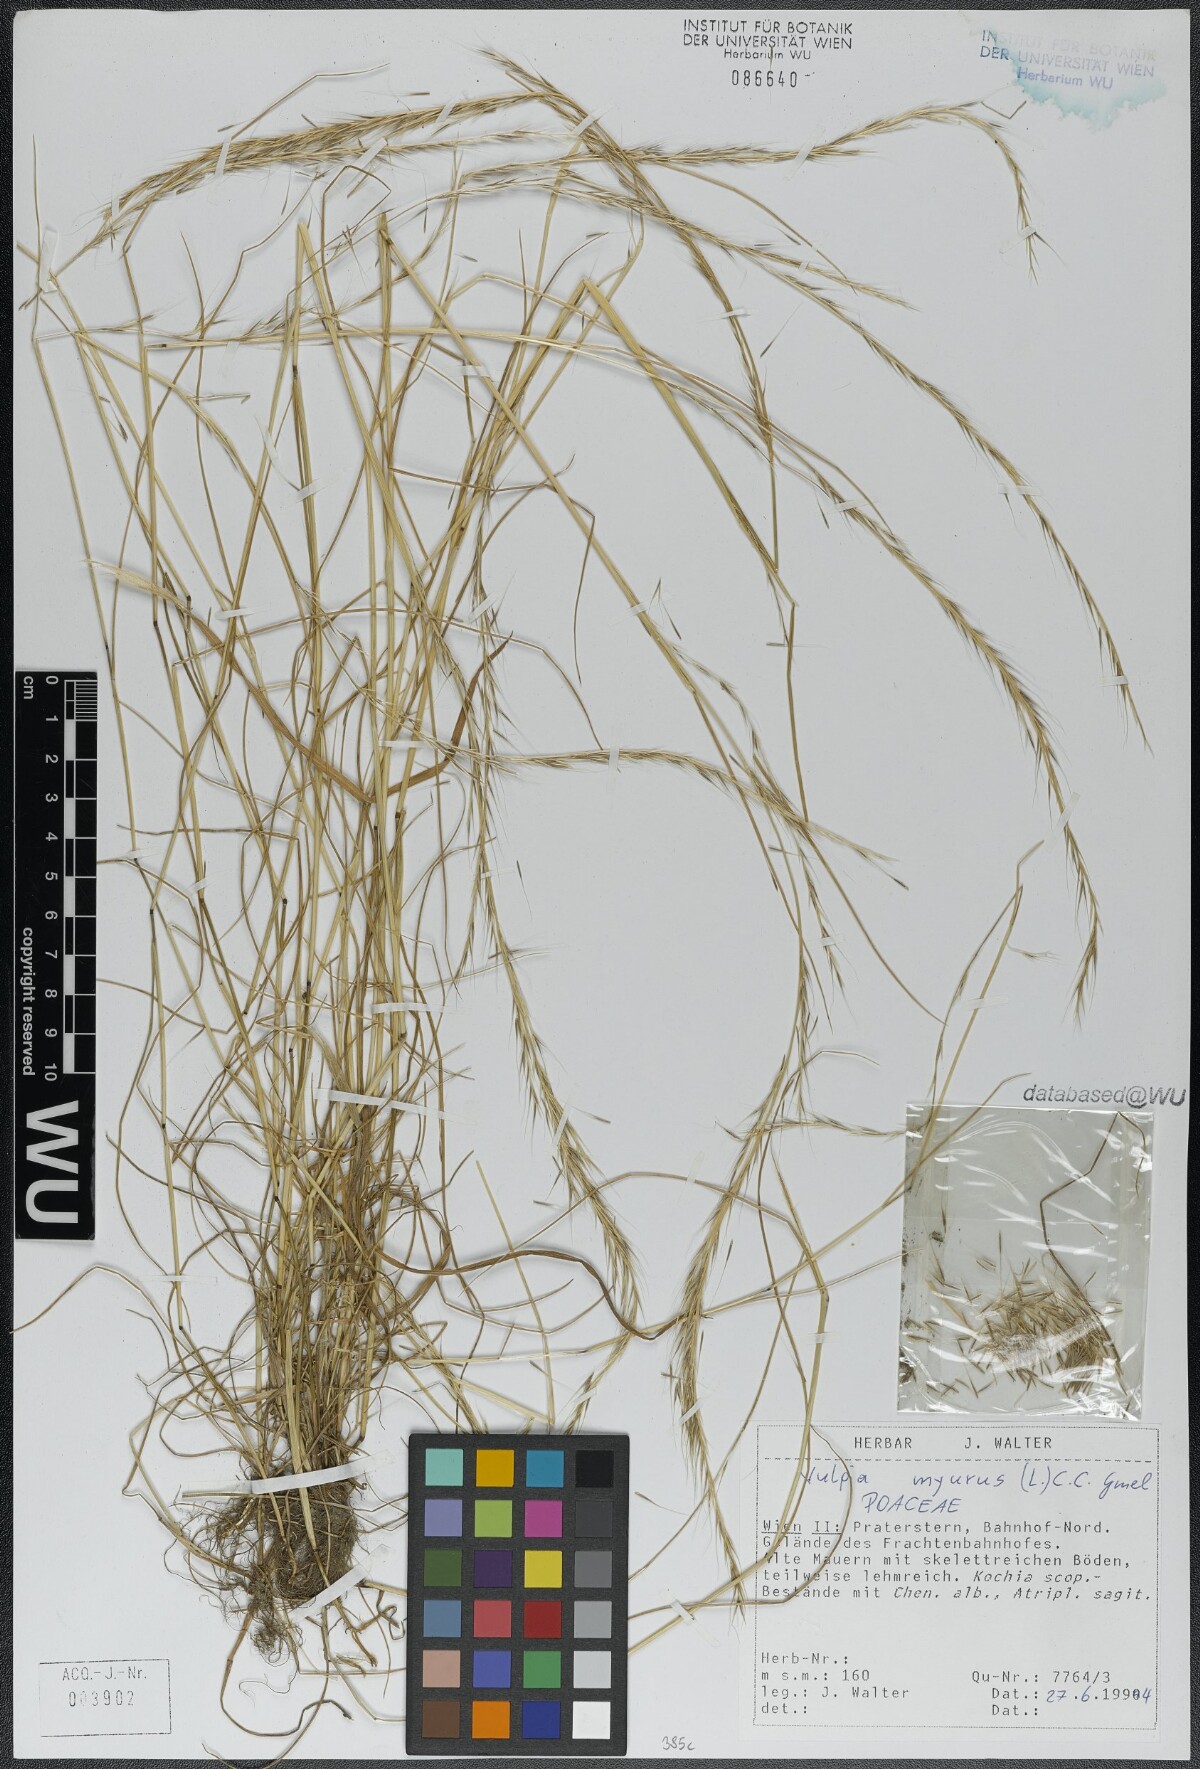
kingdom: Plantae
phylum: Tracheophyta
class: Liliopsida
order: Poales
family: Poaceae
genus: Festuca
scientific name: Festuca myuros
